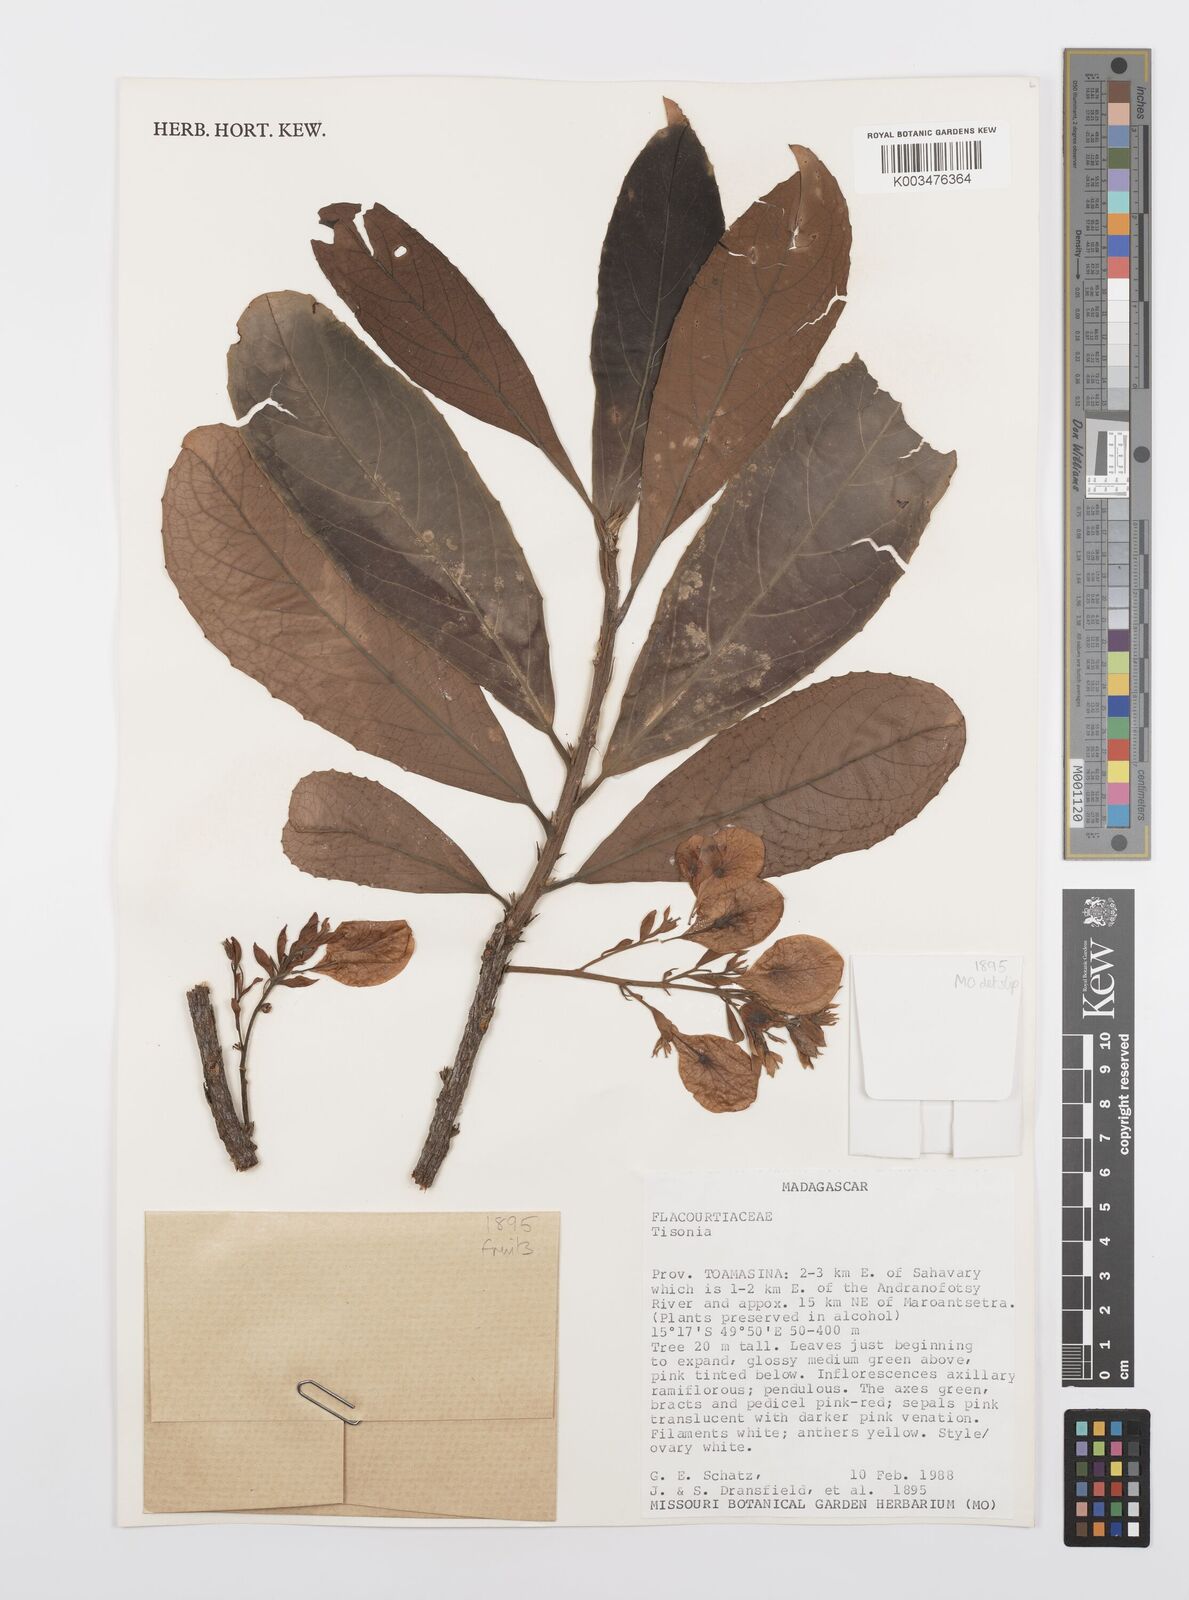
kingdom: Plantae
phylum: Tracheophyta
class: Magnoliopsida
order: Malpighiales
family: Salicaceae
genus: Tisonia
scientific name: Tisonia
